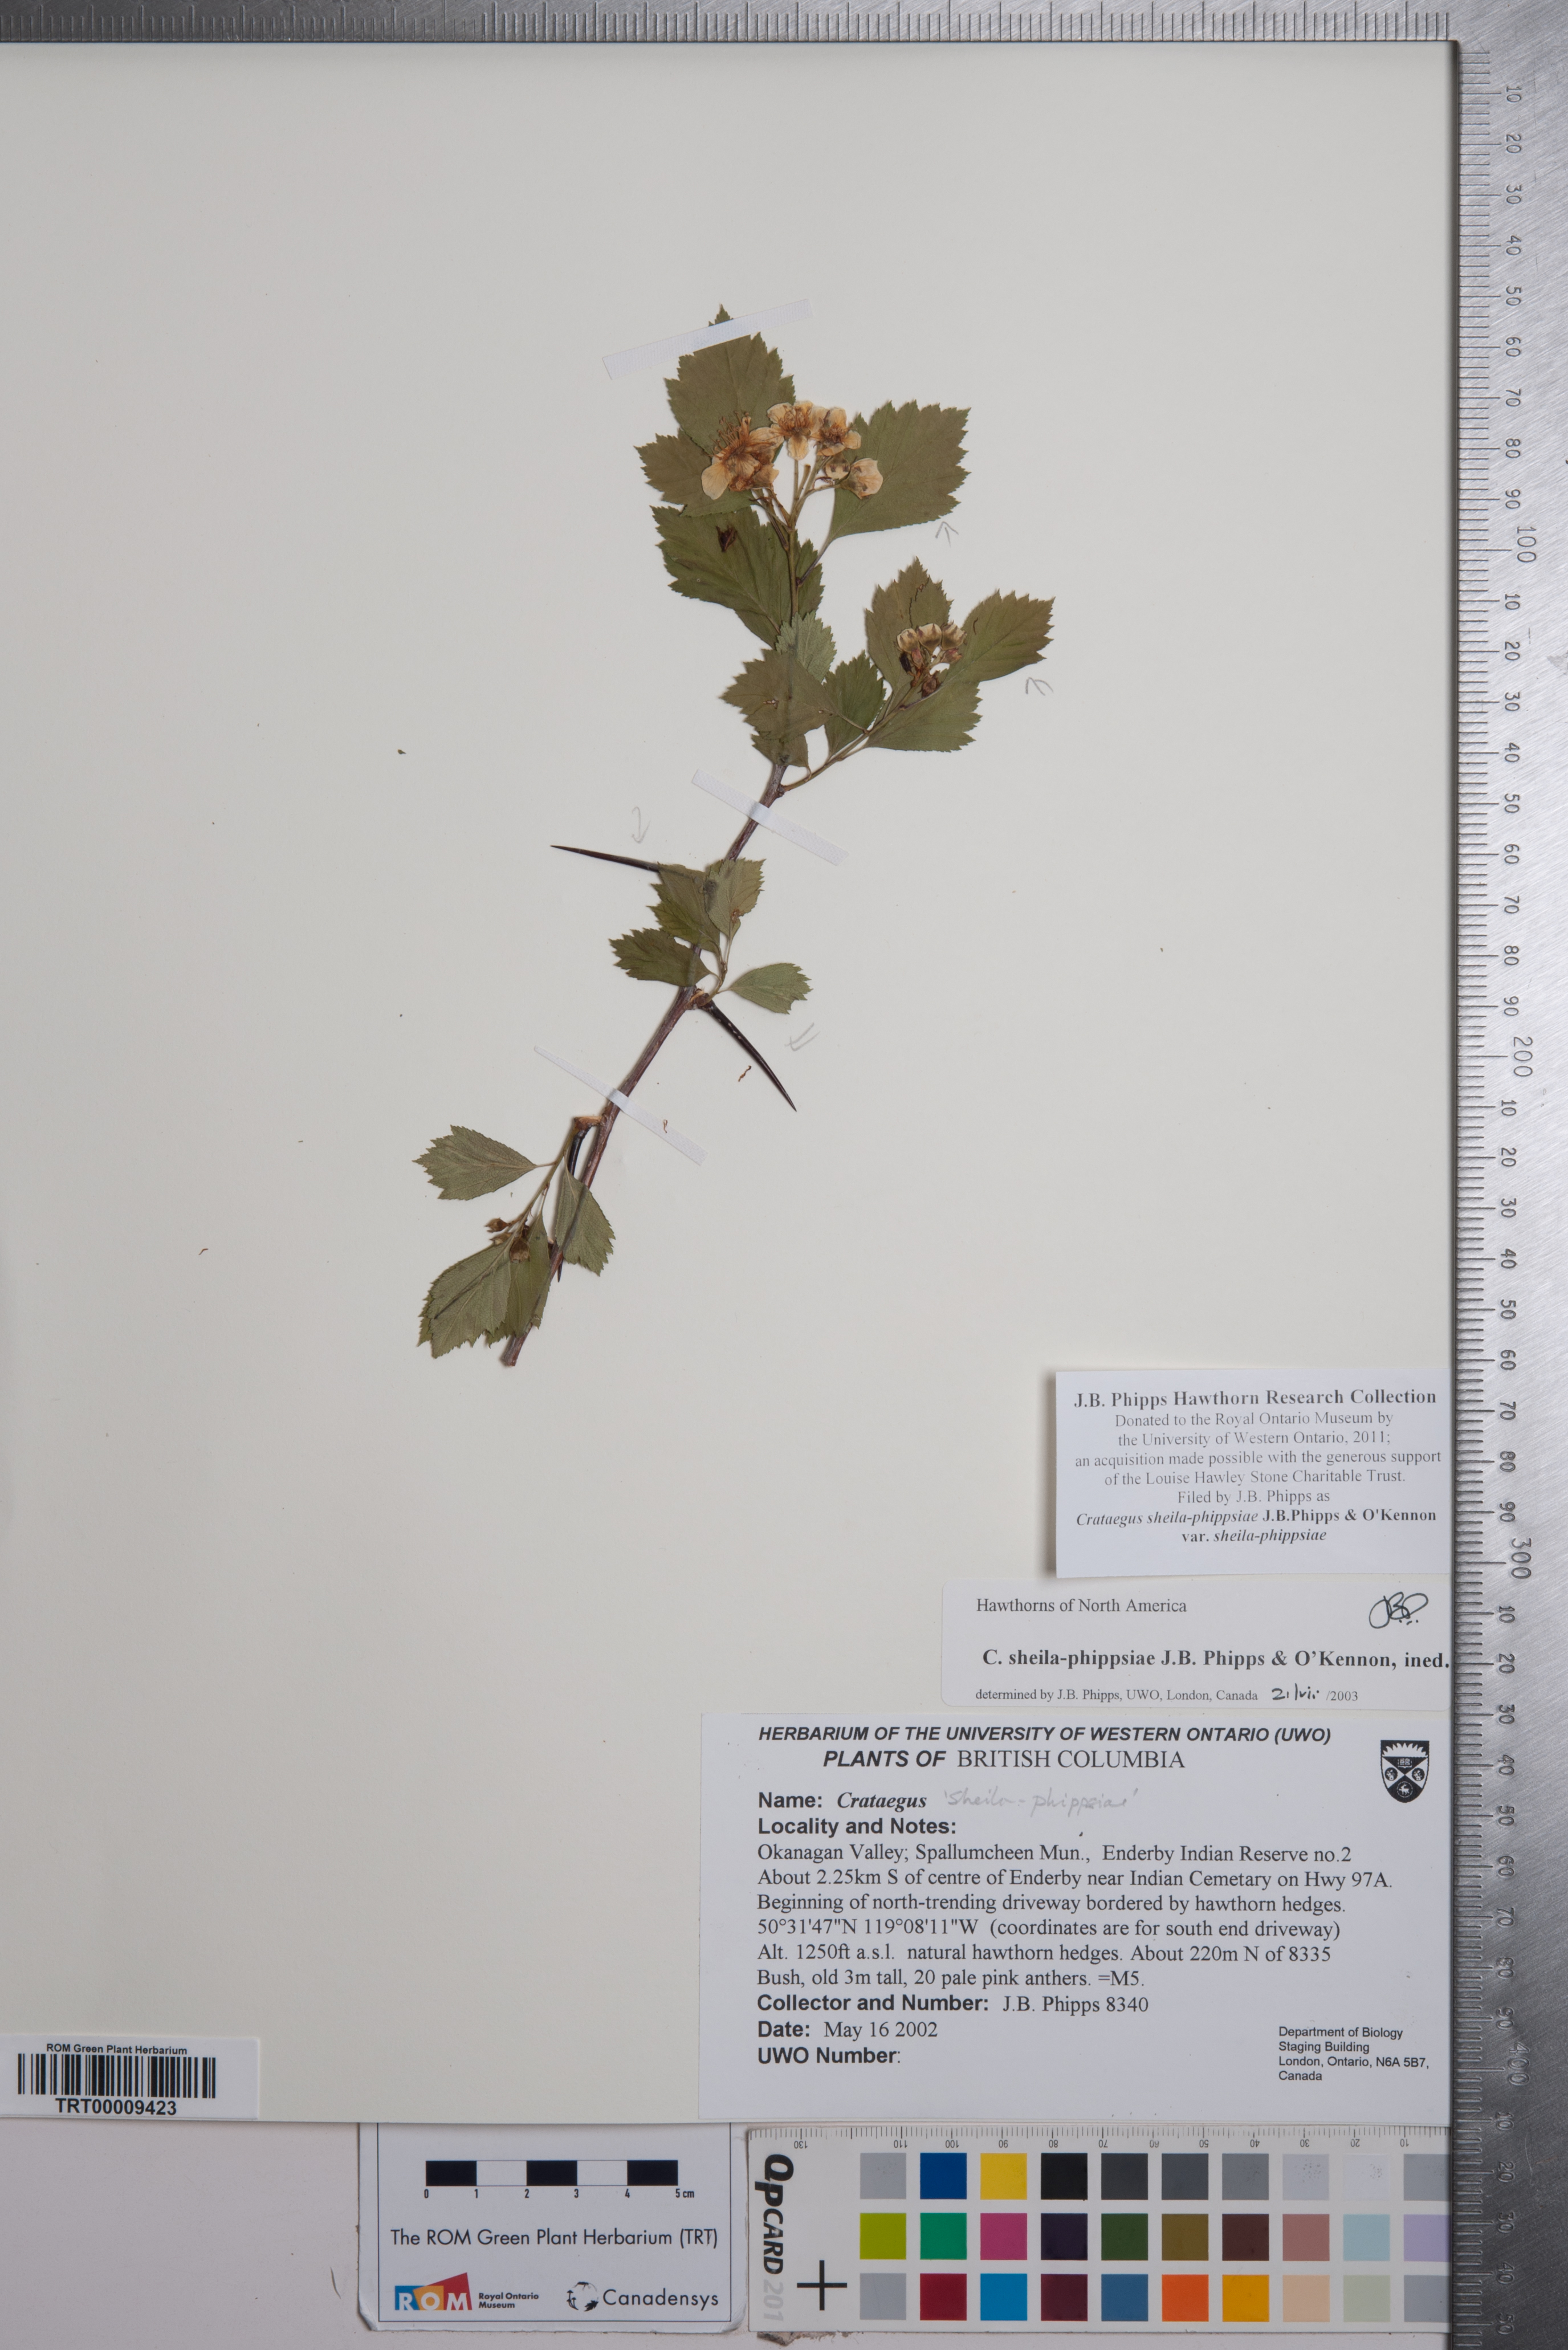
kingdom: Plantae
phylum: Tracheophyta
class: Magnoliopsida
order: Rosales
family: Rosaceae
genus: Crataegus
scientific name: Crataegus sheila-phippsiae
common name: Sheila phipps' hawthorn
